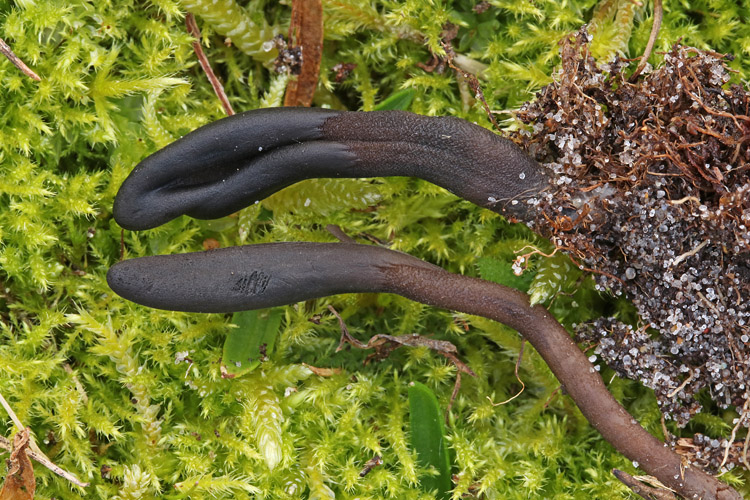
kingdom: Fungi
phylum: Ascomycota
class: Geoglossomycetes
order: Geoglossales
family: Geoglossaceae
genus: Hemileucoglossum
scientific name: Hemileucoglossum elongatum
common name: småsporet jordtunge
